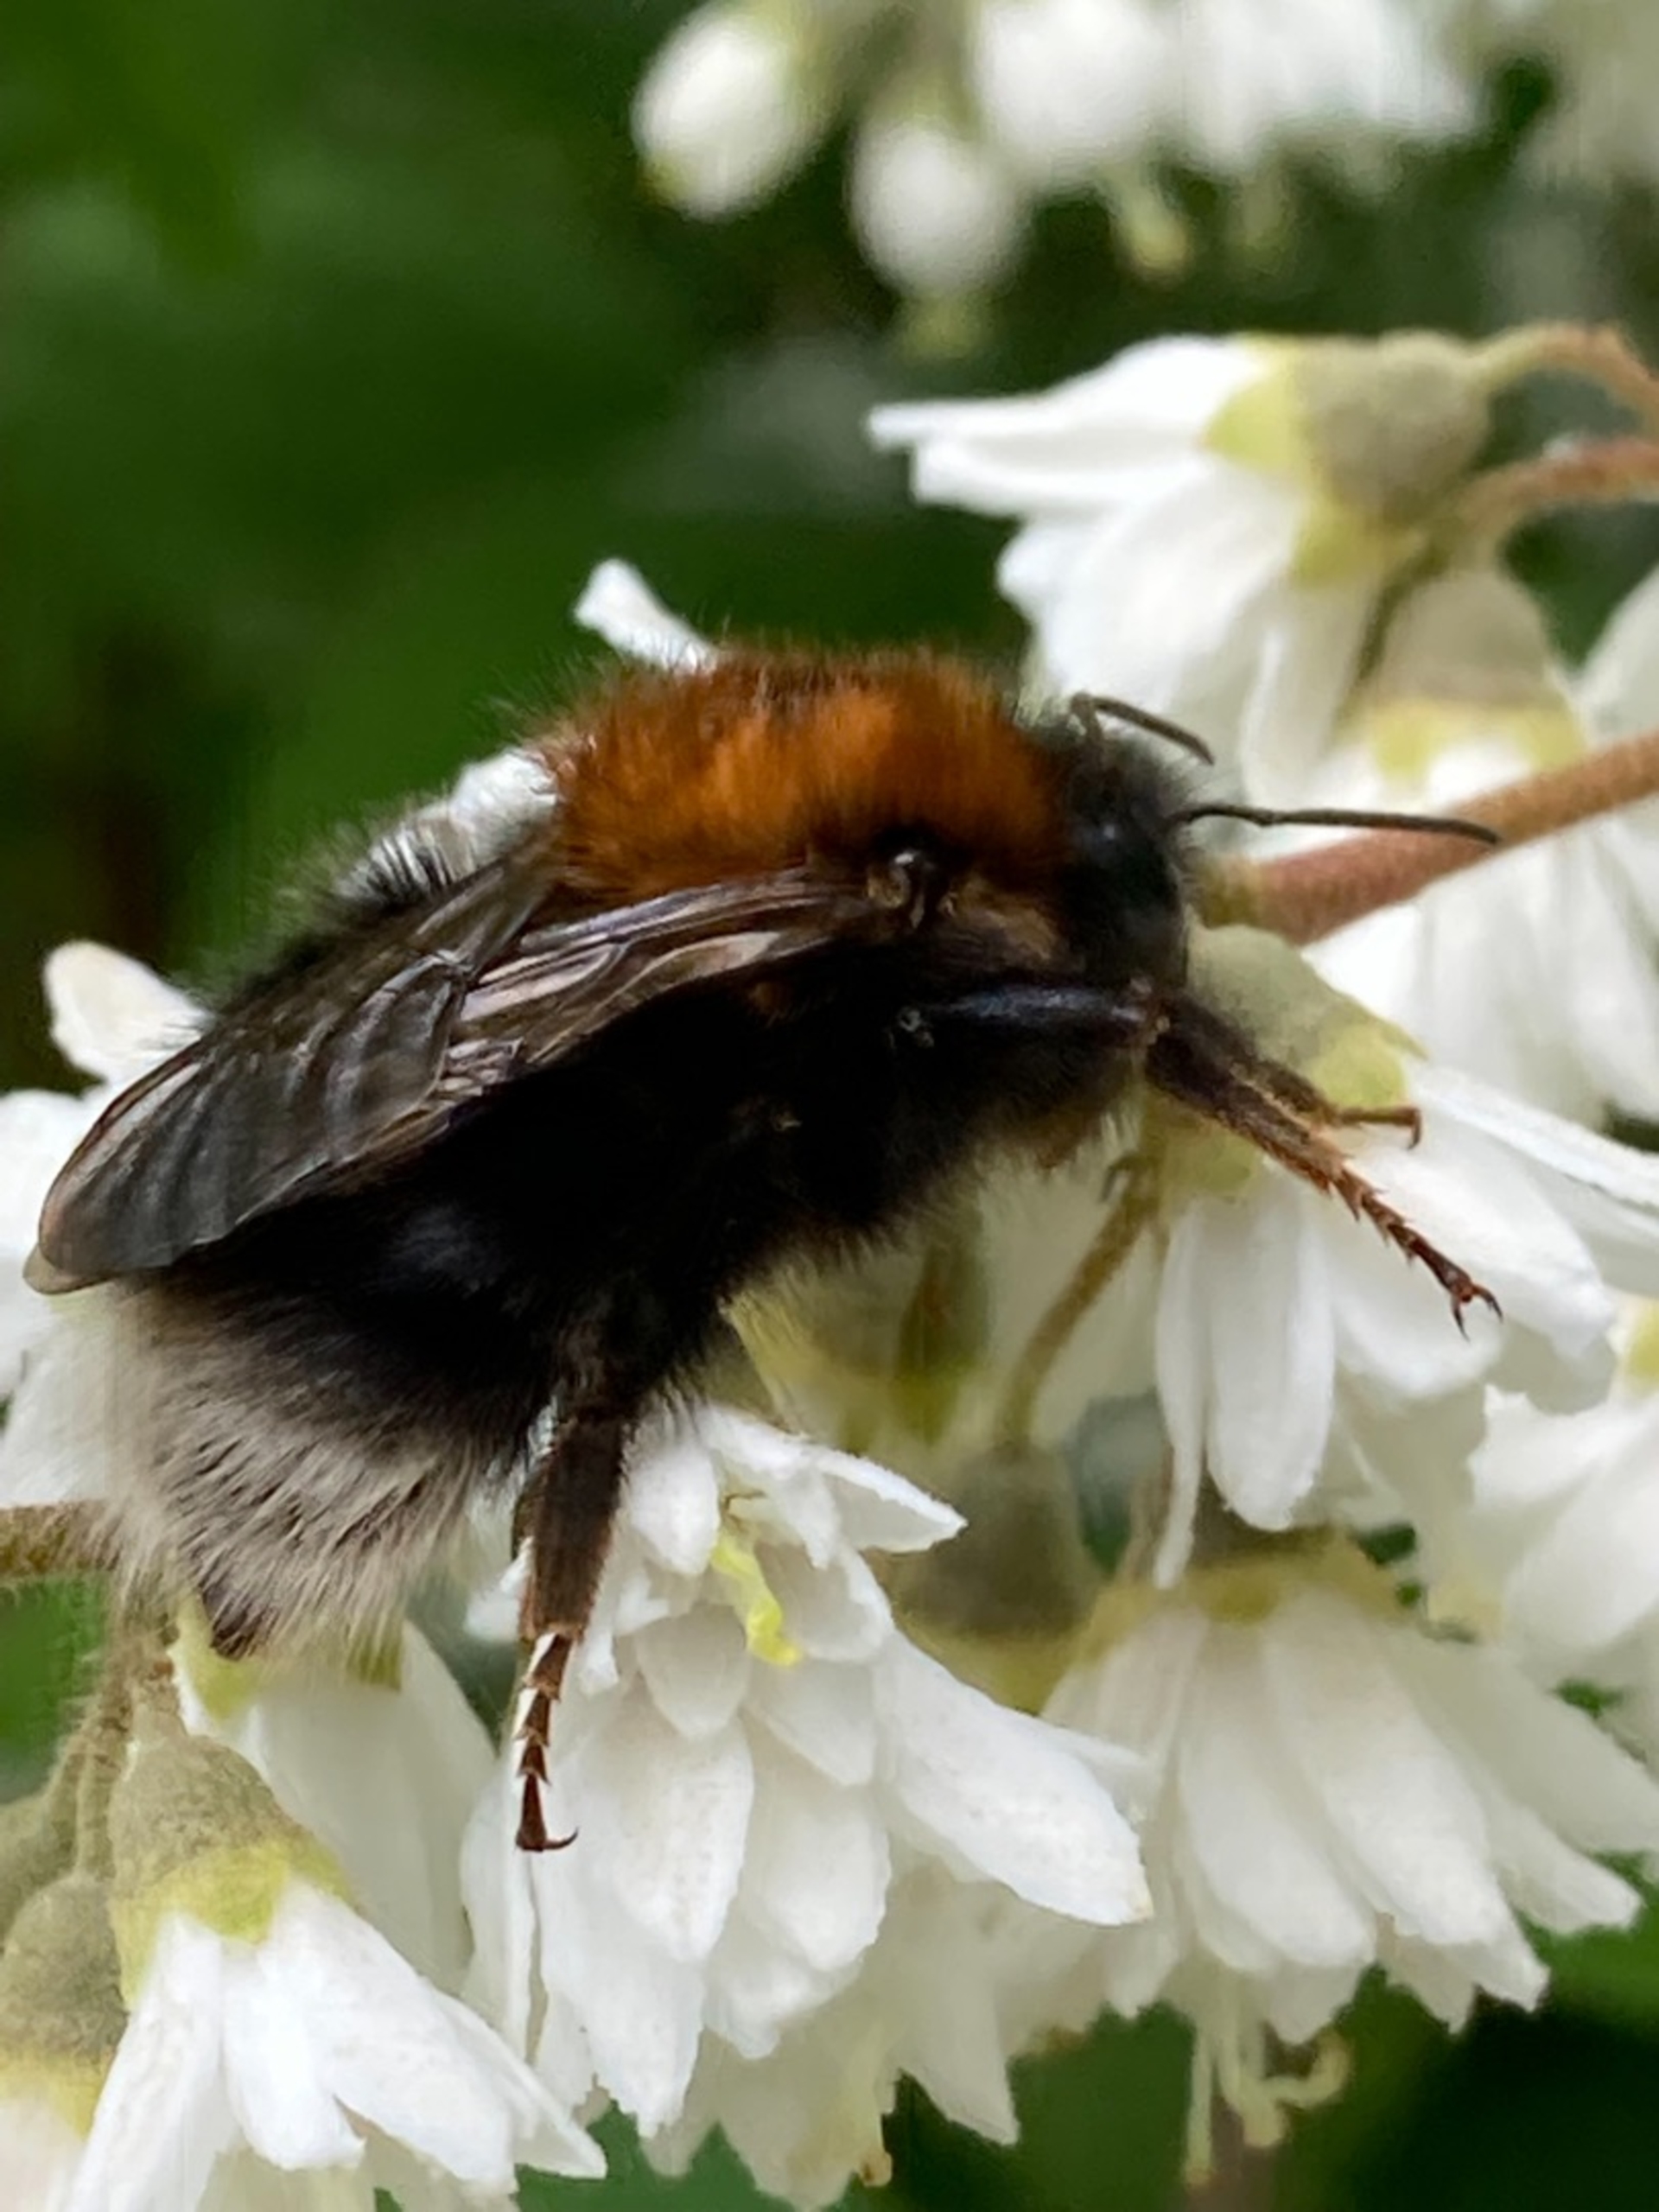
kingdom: Animalia
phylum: Arthropoda
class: Insecta
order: Hymenoptera
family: Apidae
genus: Bombus
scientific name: Bombus hypnorum
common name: Hushumle
